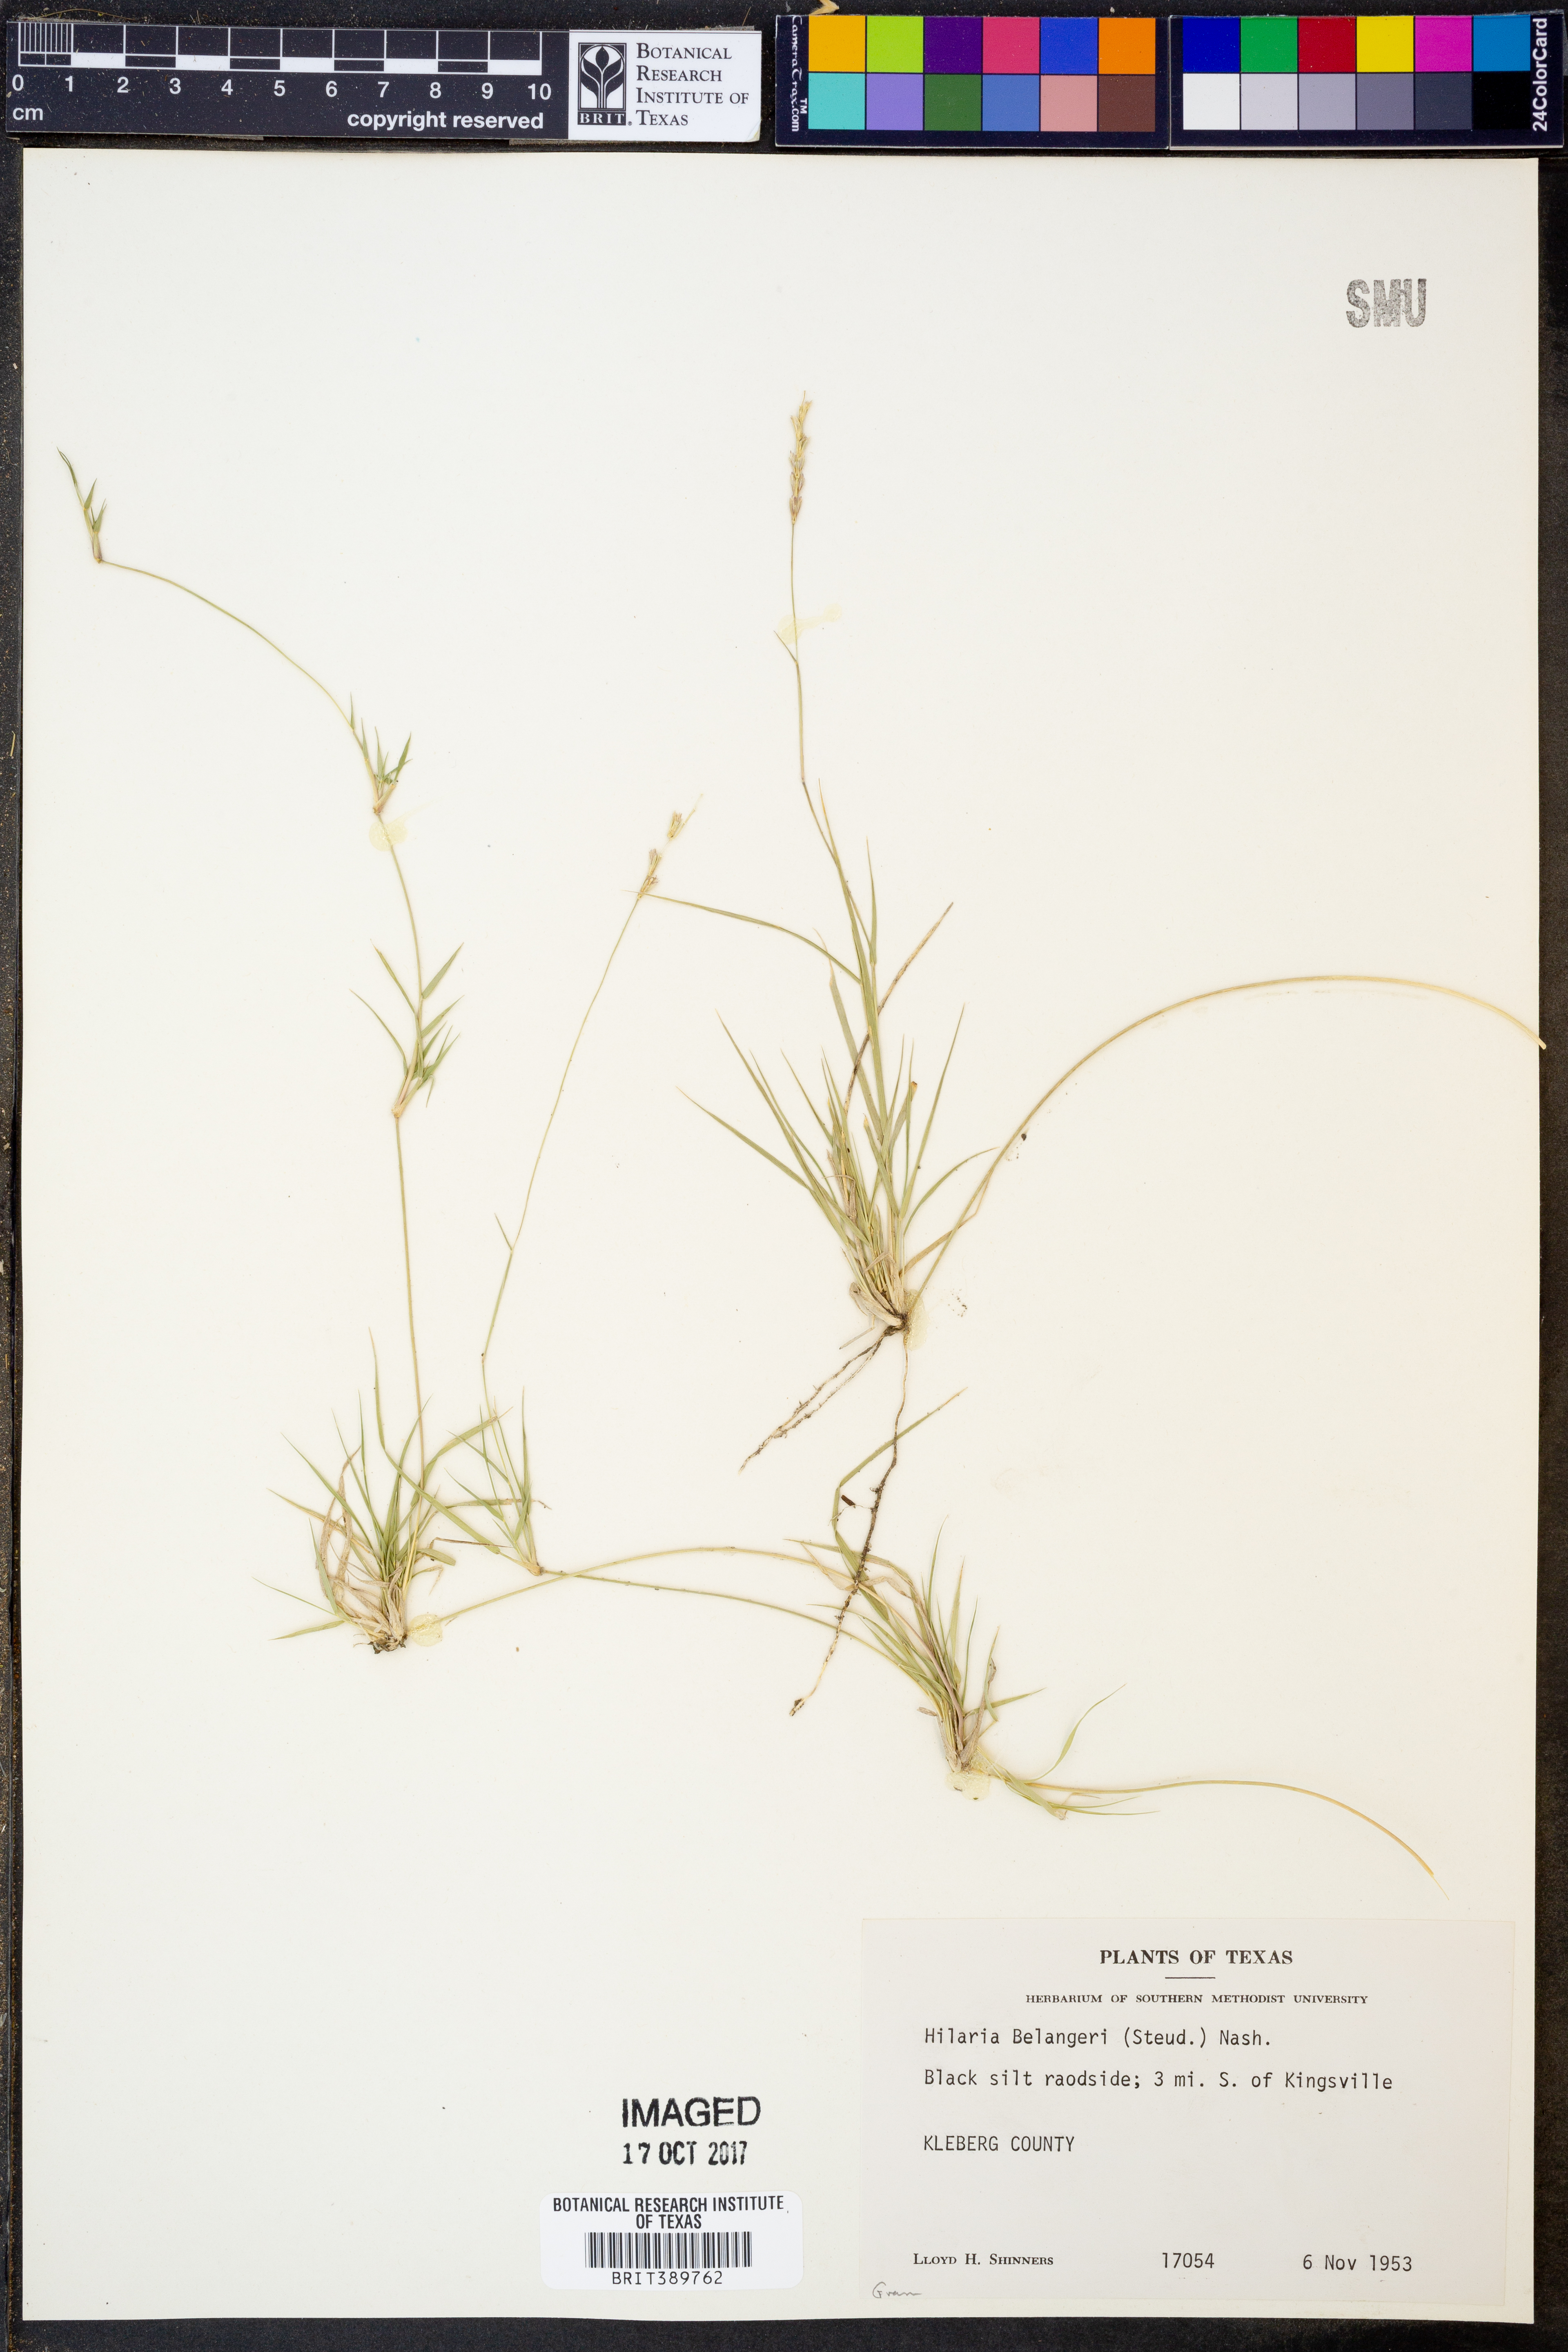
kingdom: Plantae
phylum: Tracheophyta
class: Liliopsida
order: Poales
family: Poaceae
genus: Hilaria
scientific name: Hilaria belangeri
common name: Curly-mesquite
